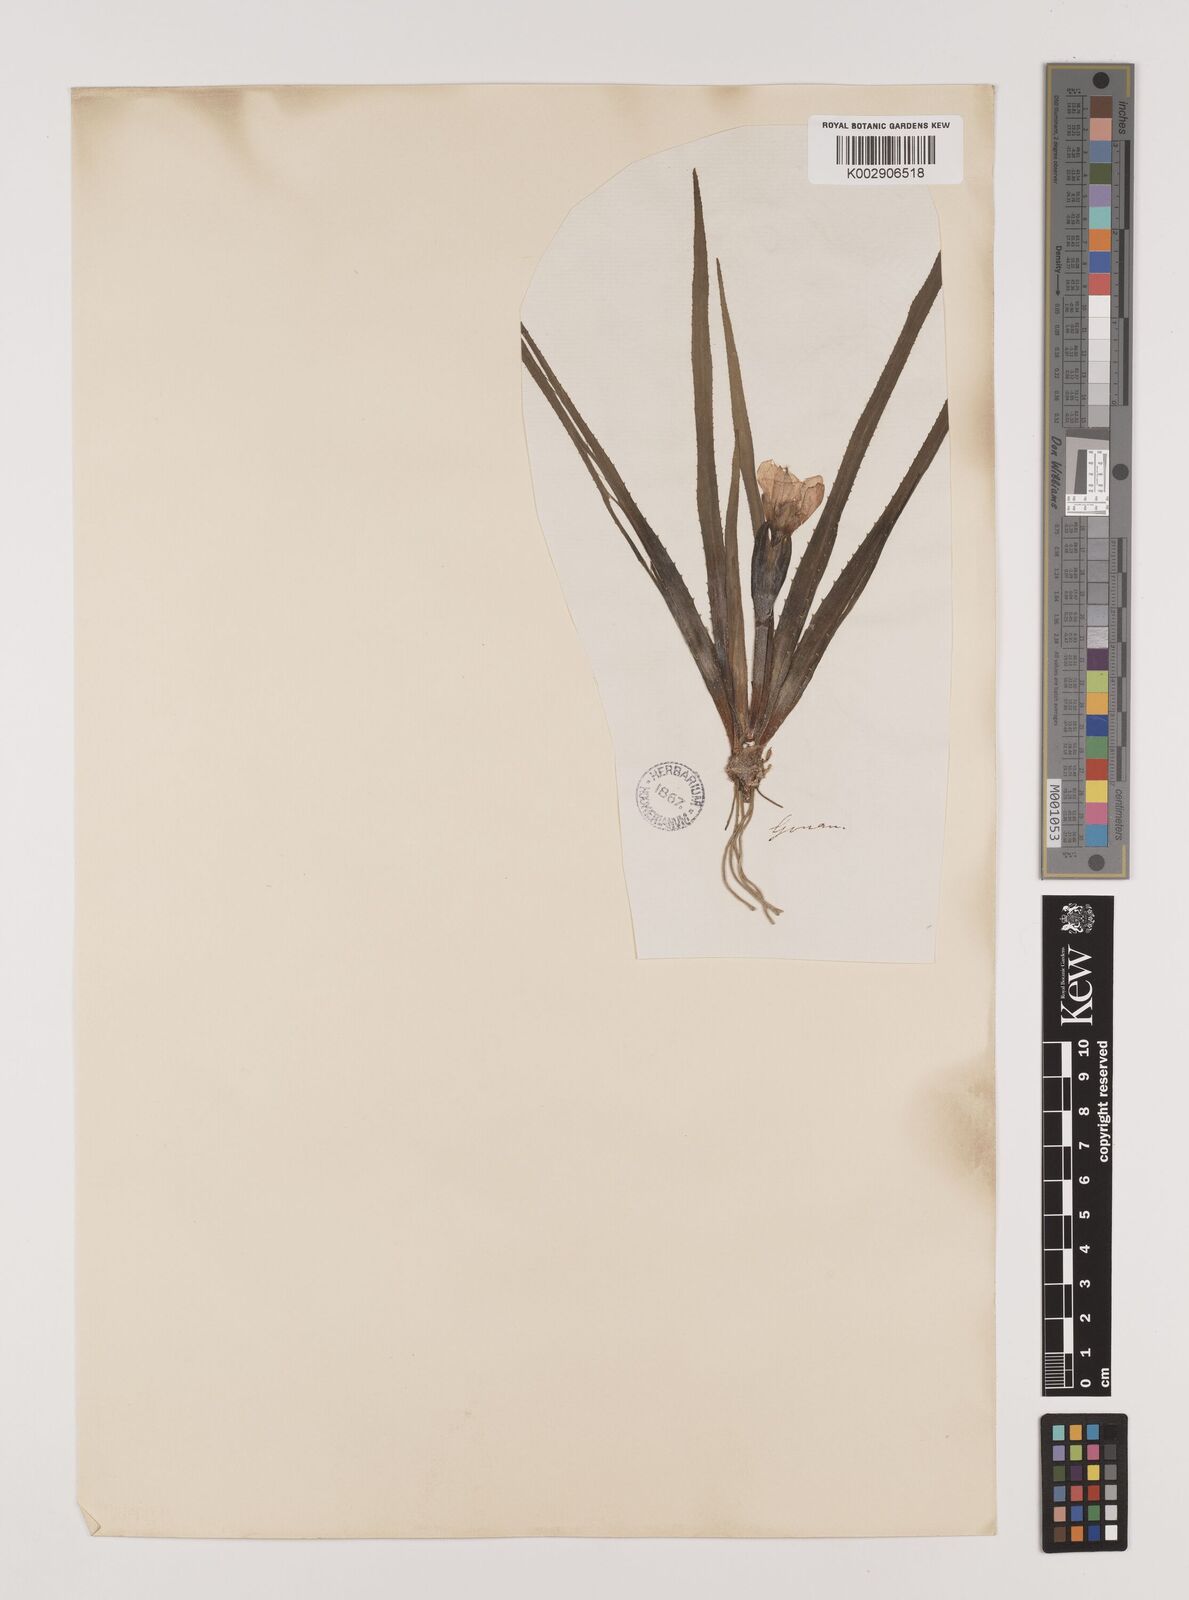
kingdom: Plantae
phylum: Tracheophyta
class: Liliopsida
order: Alismatales
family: Hydrocharitaceae
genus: Stratiotes
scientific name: Stratiotes aloides
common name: Water-soldier
